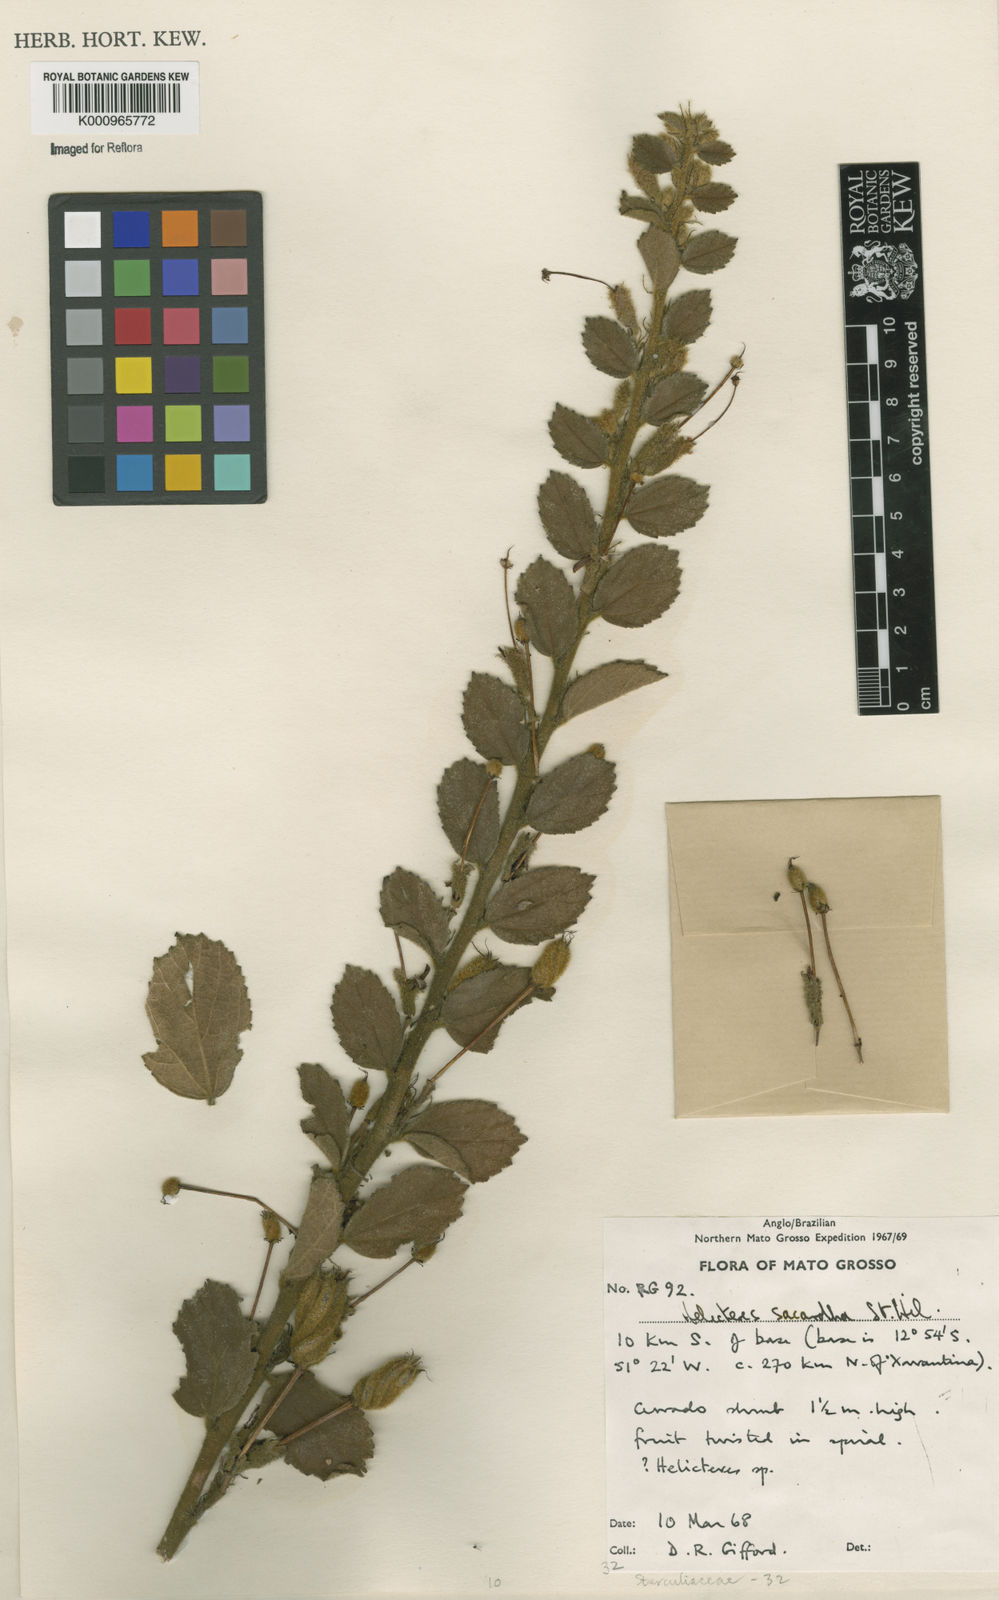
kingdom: Plantae
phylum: Tracheophyta
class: Magnoliopsida
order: Malvales
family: Malvaceae
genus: Helicteres
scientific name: Helicteres
